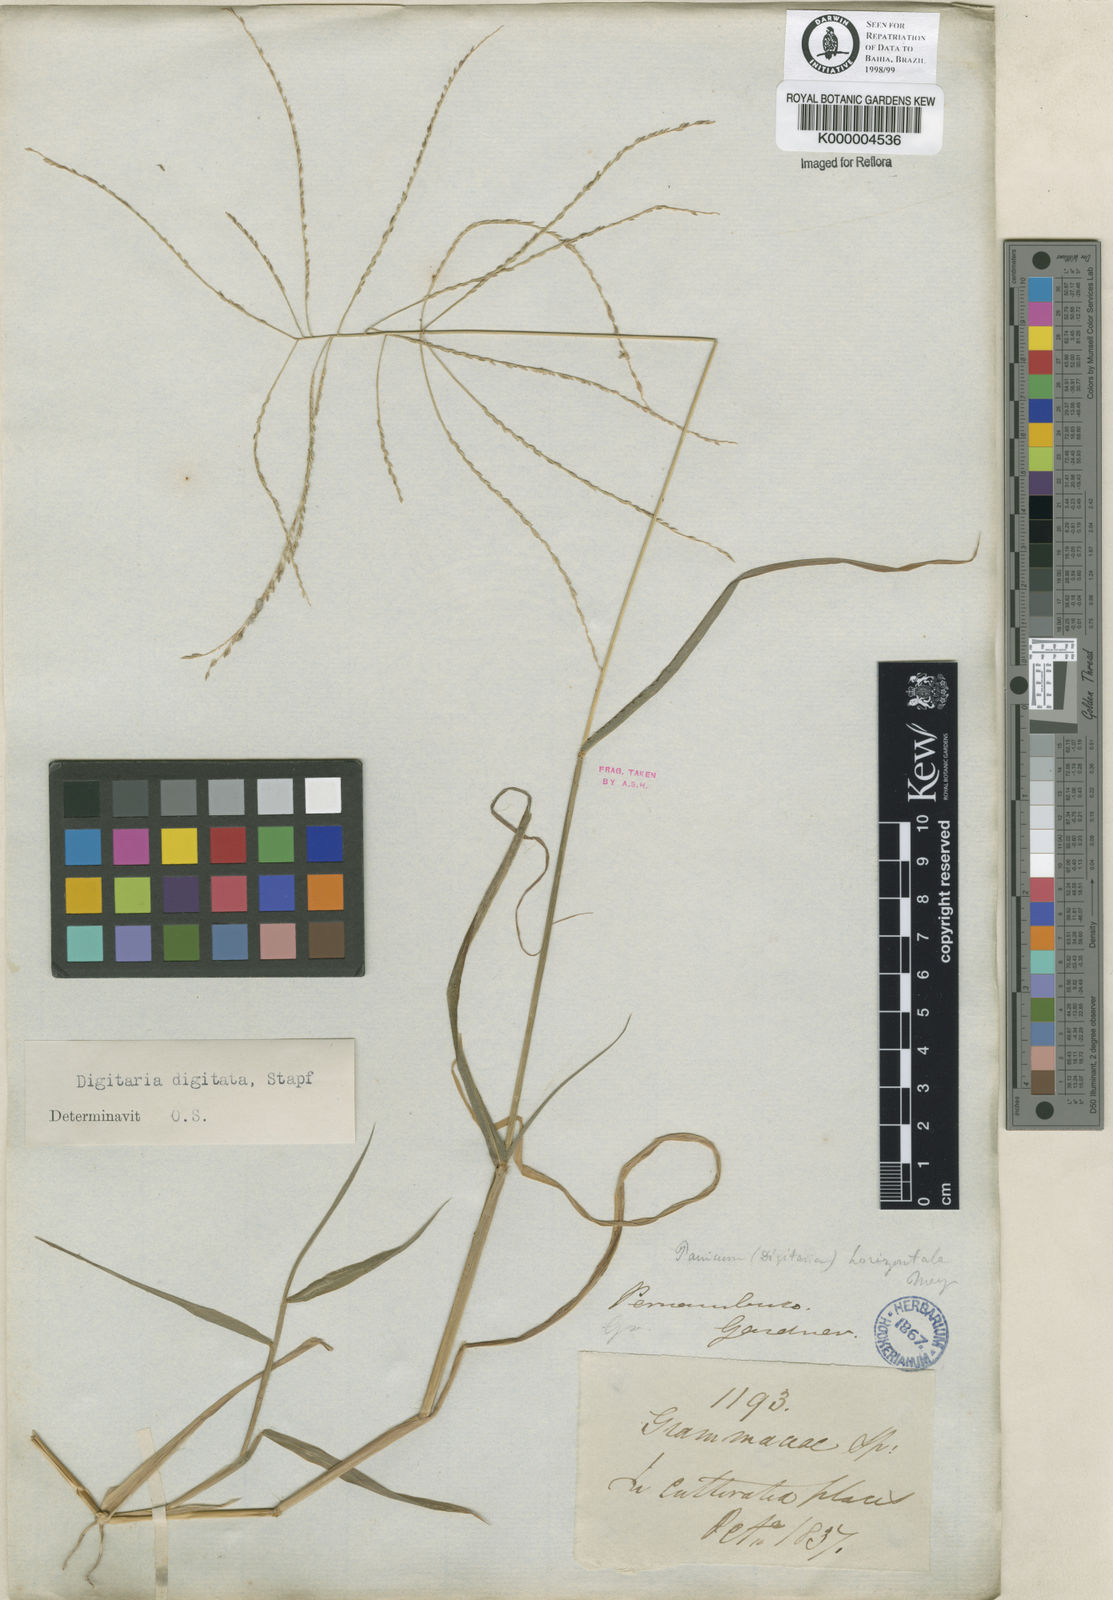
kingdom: Plantae
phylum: Tracheophyta
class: Liliopsida
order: Poales
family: Poaceae
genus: Digitaria
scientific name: Digitaria horizontalis
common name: Jamaican crabgrass
